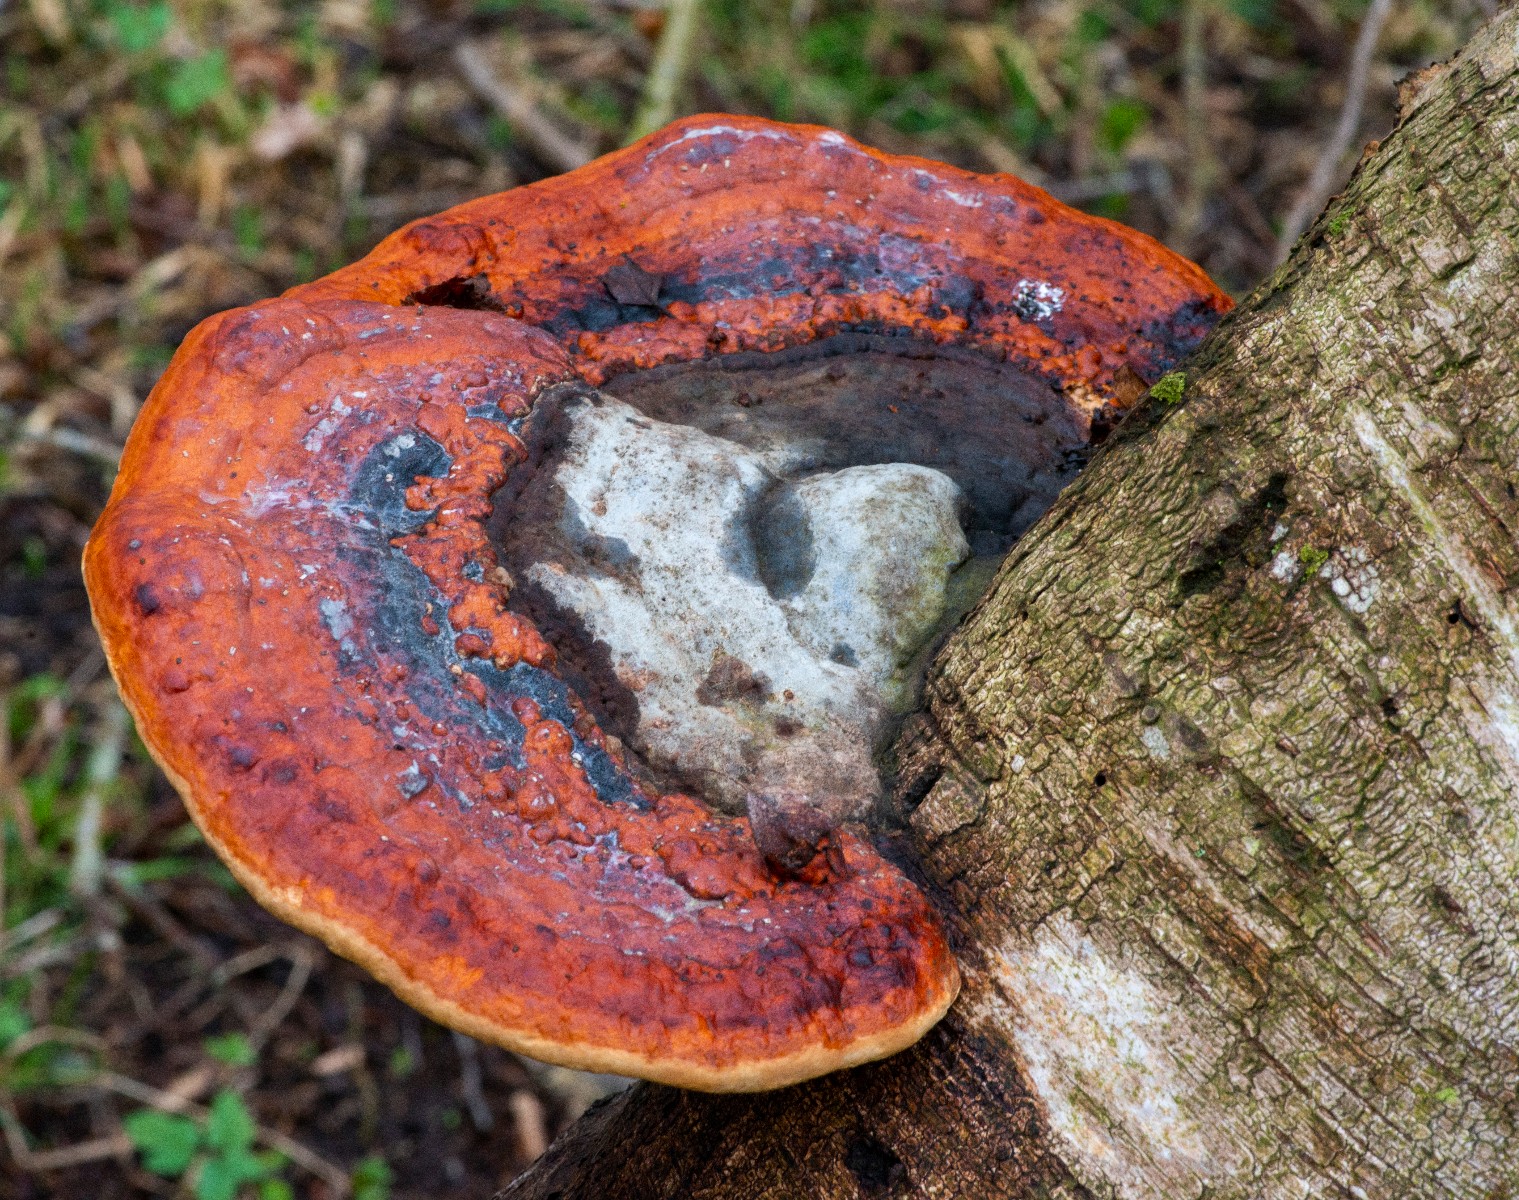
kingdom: Fungi
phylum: Basidiomycota
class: Agaricomycetes
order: Polyporales
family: Fomitopsidaceae
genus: Fomitopsis
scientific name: Fomitopsis pinicola
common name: randbæltet hovporesvamp
